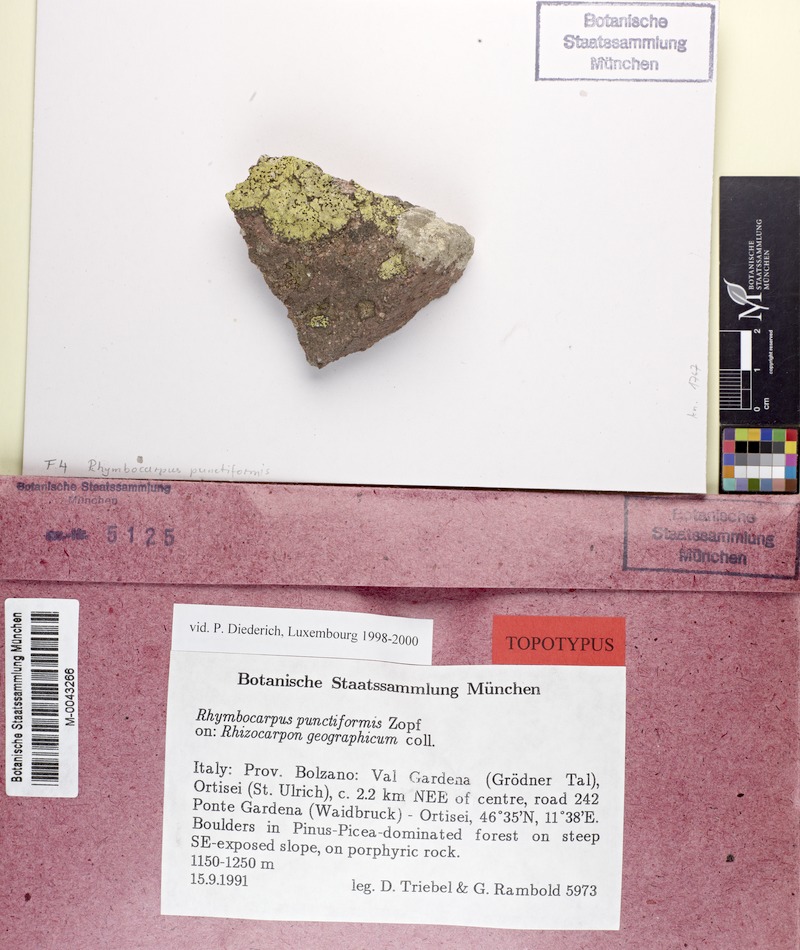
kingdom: Fungi
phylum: Ascomycota
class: Lecanoromycetes
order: Rhizocarpales
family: Rhizocarpaceae
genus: Rhizocarpon
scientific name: Rhizocarpon geographicum
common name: Yellow map lichen
